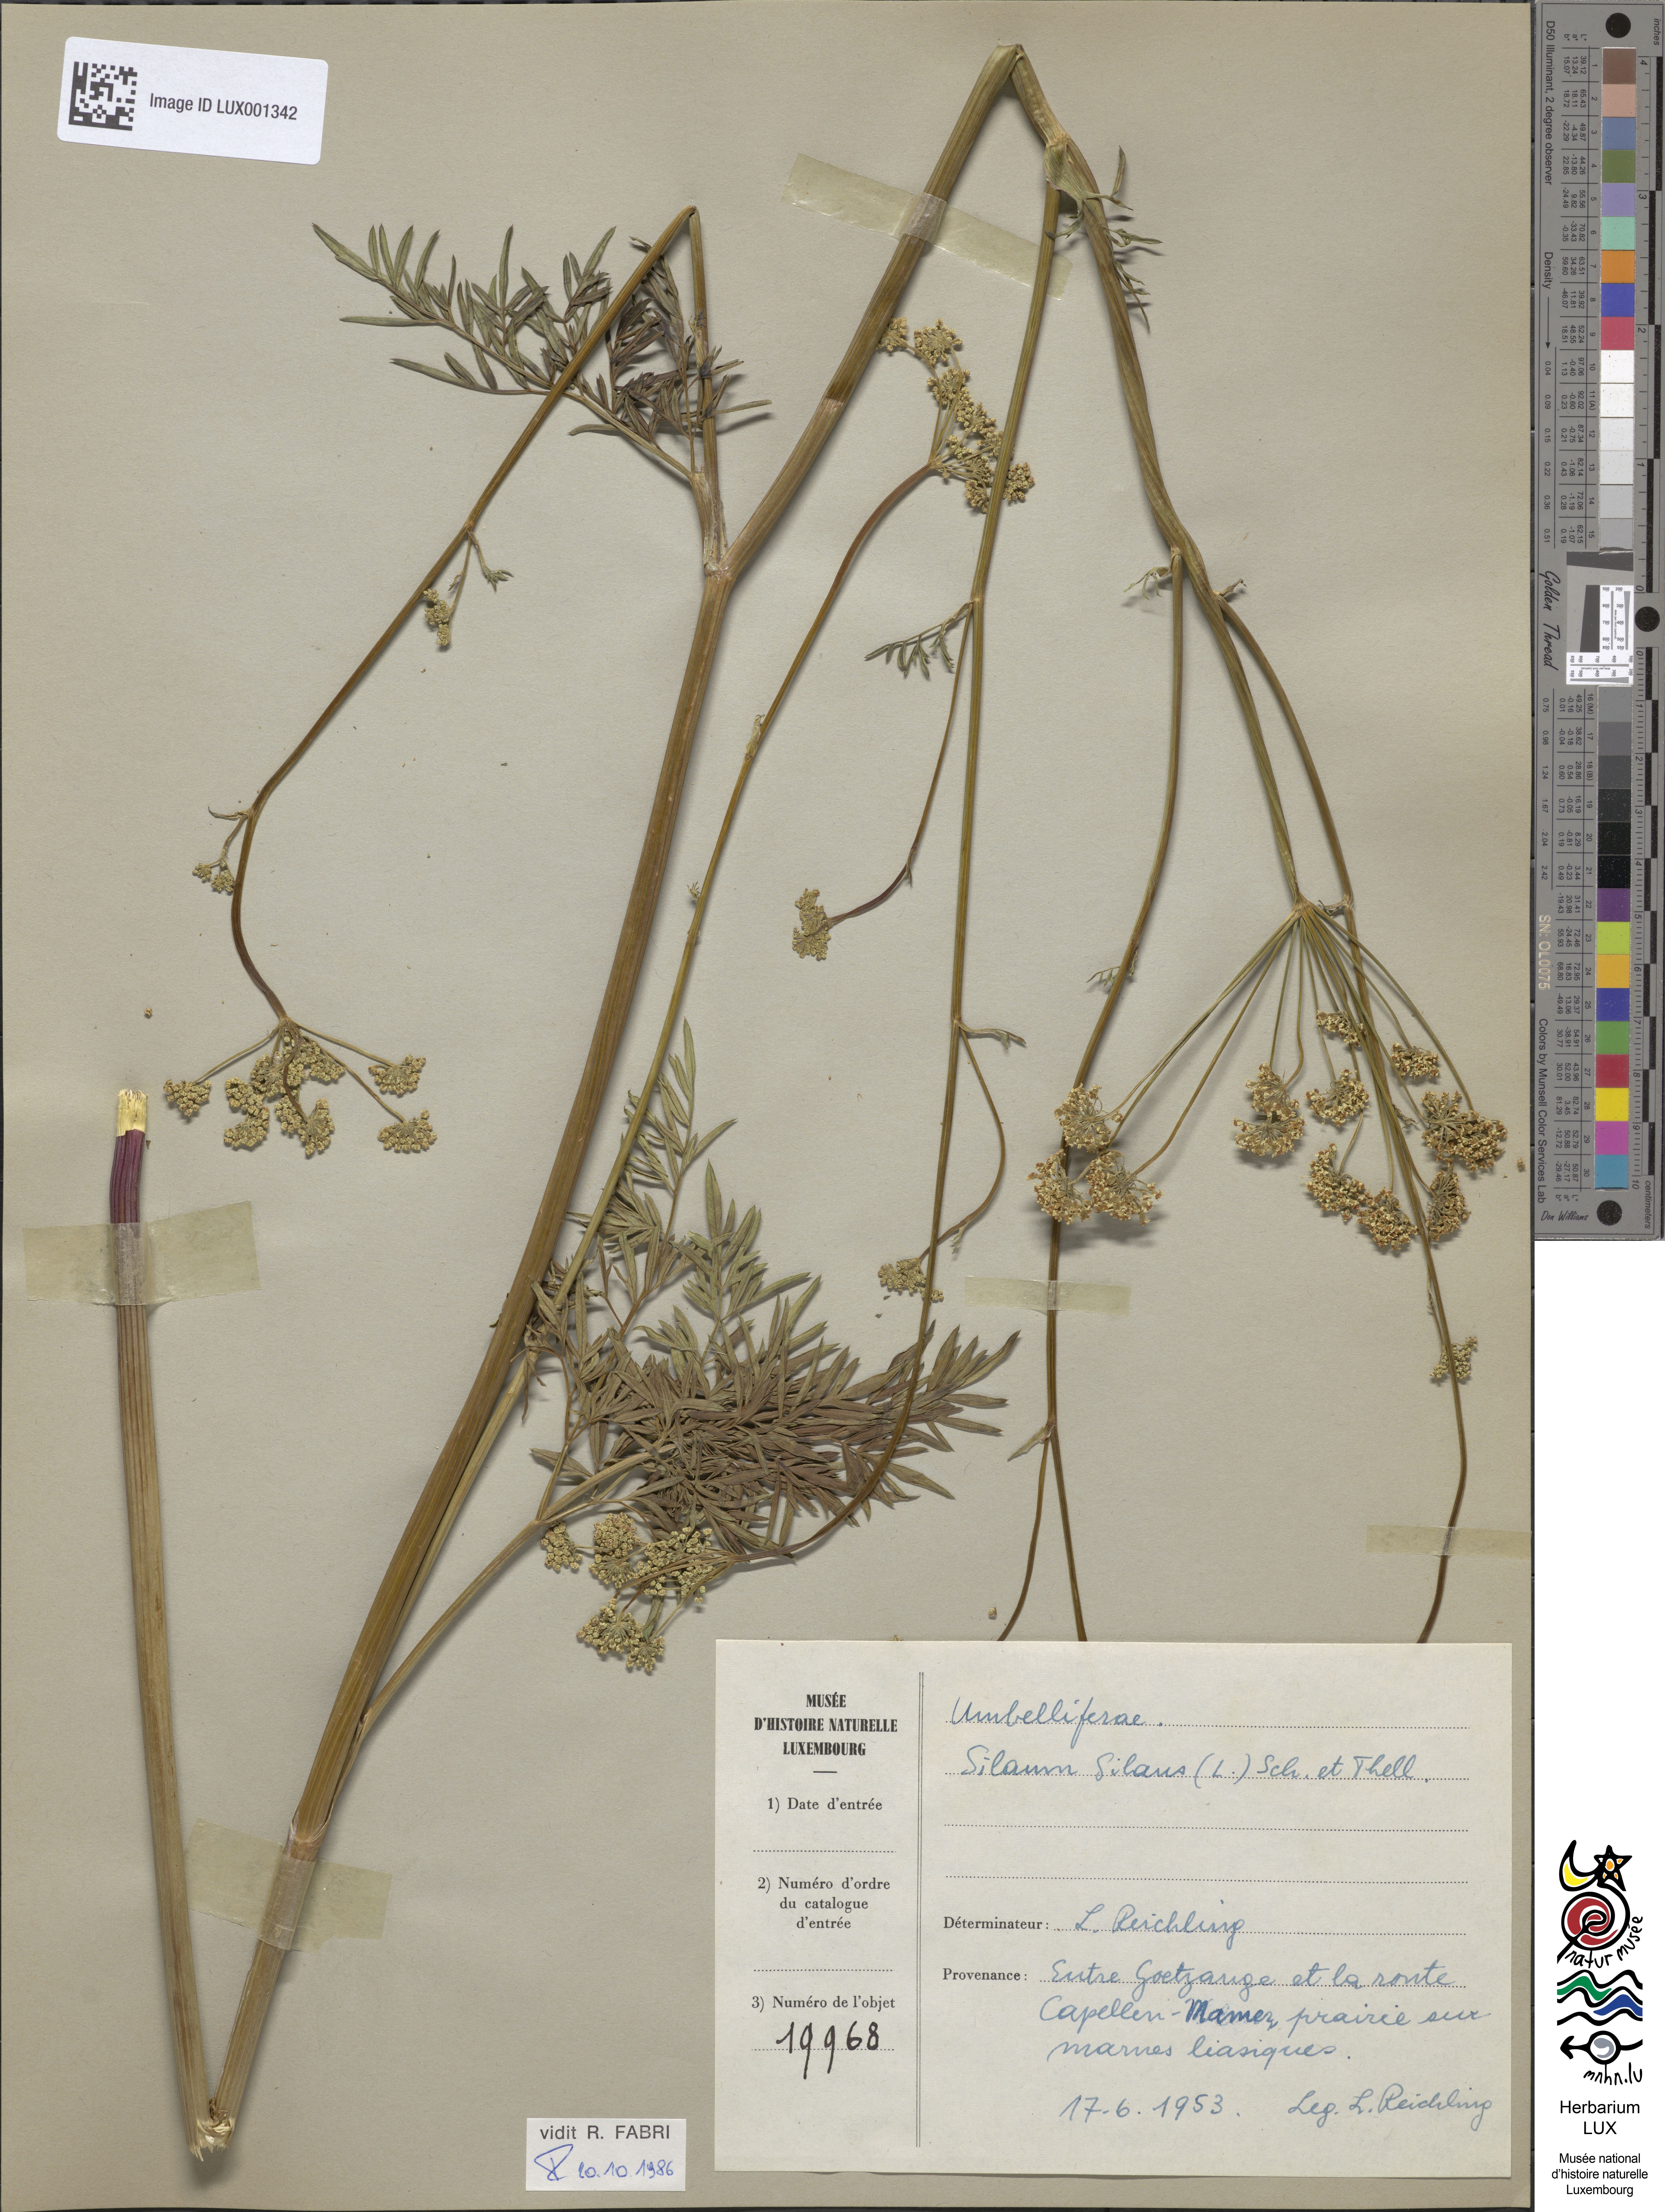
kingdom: Plantae
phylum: Tracheophyta
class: Magnoliopsida
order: Apiales
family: Apiaceae
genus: Silaum
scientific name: Silaum silaus
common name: Pepper-saxifrage
